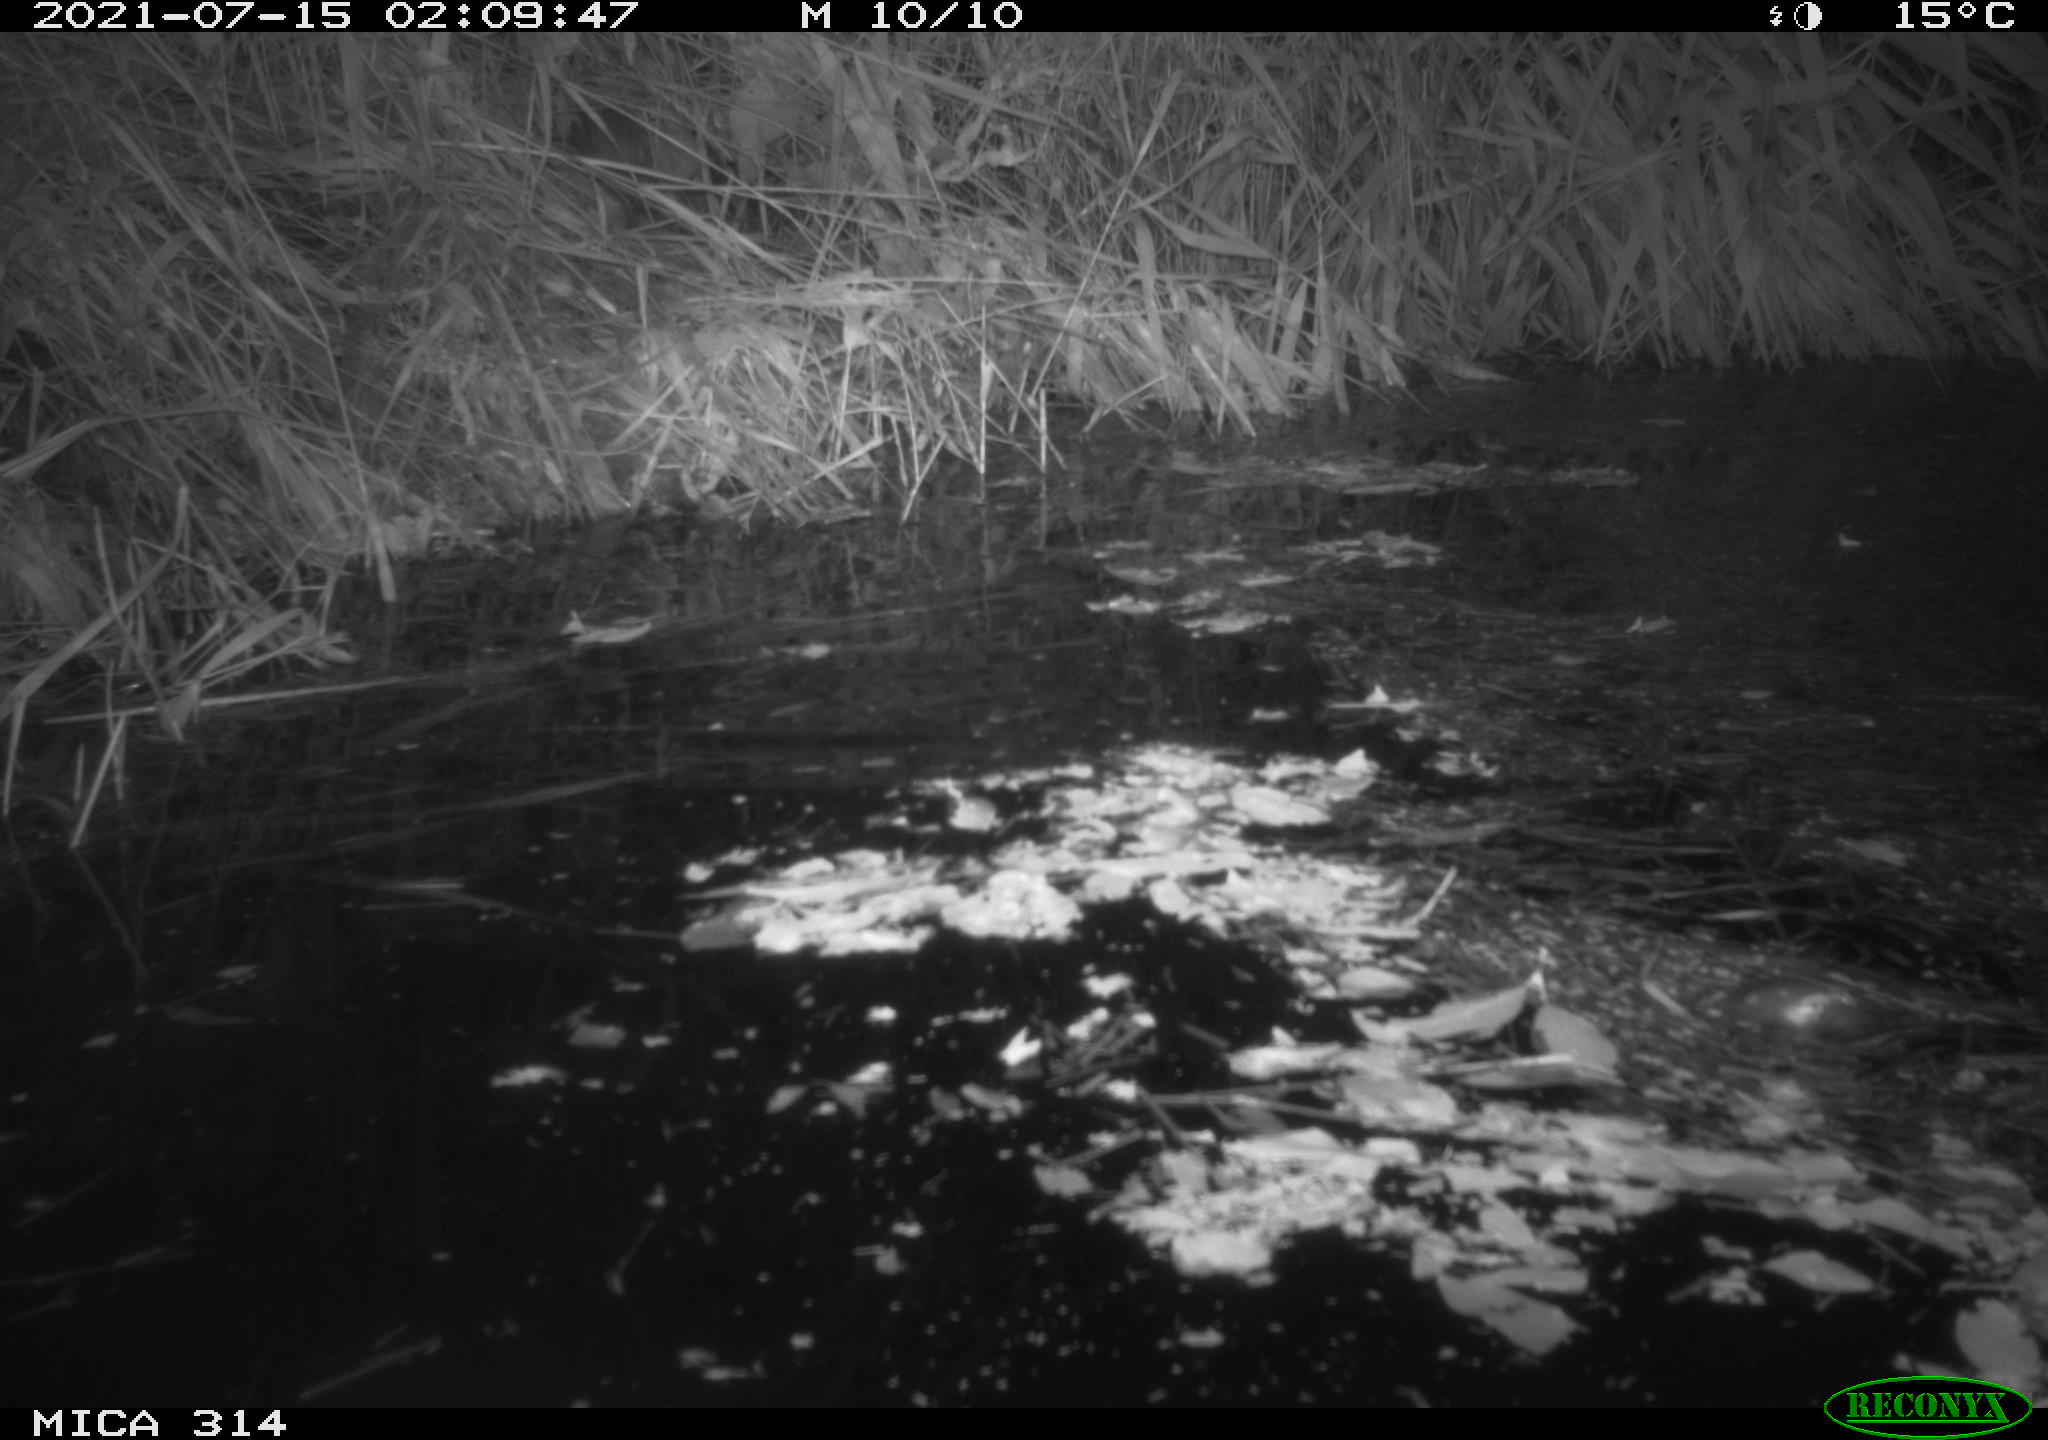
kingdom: Animalia
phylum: Chordata
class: Mammalia
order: Rodentia
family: Muridae
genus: Rattus
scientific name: Rattus norvegicus
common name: Brown rat
